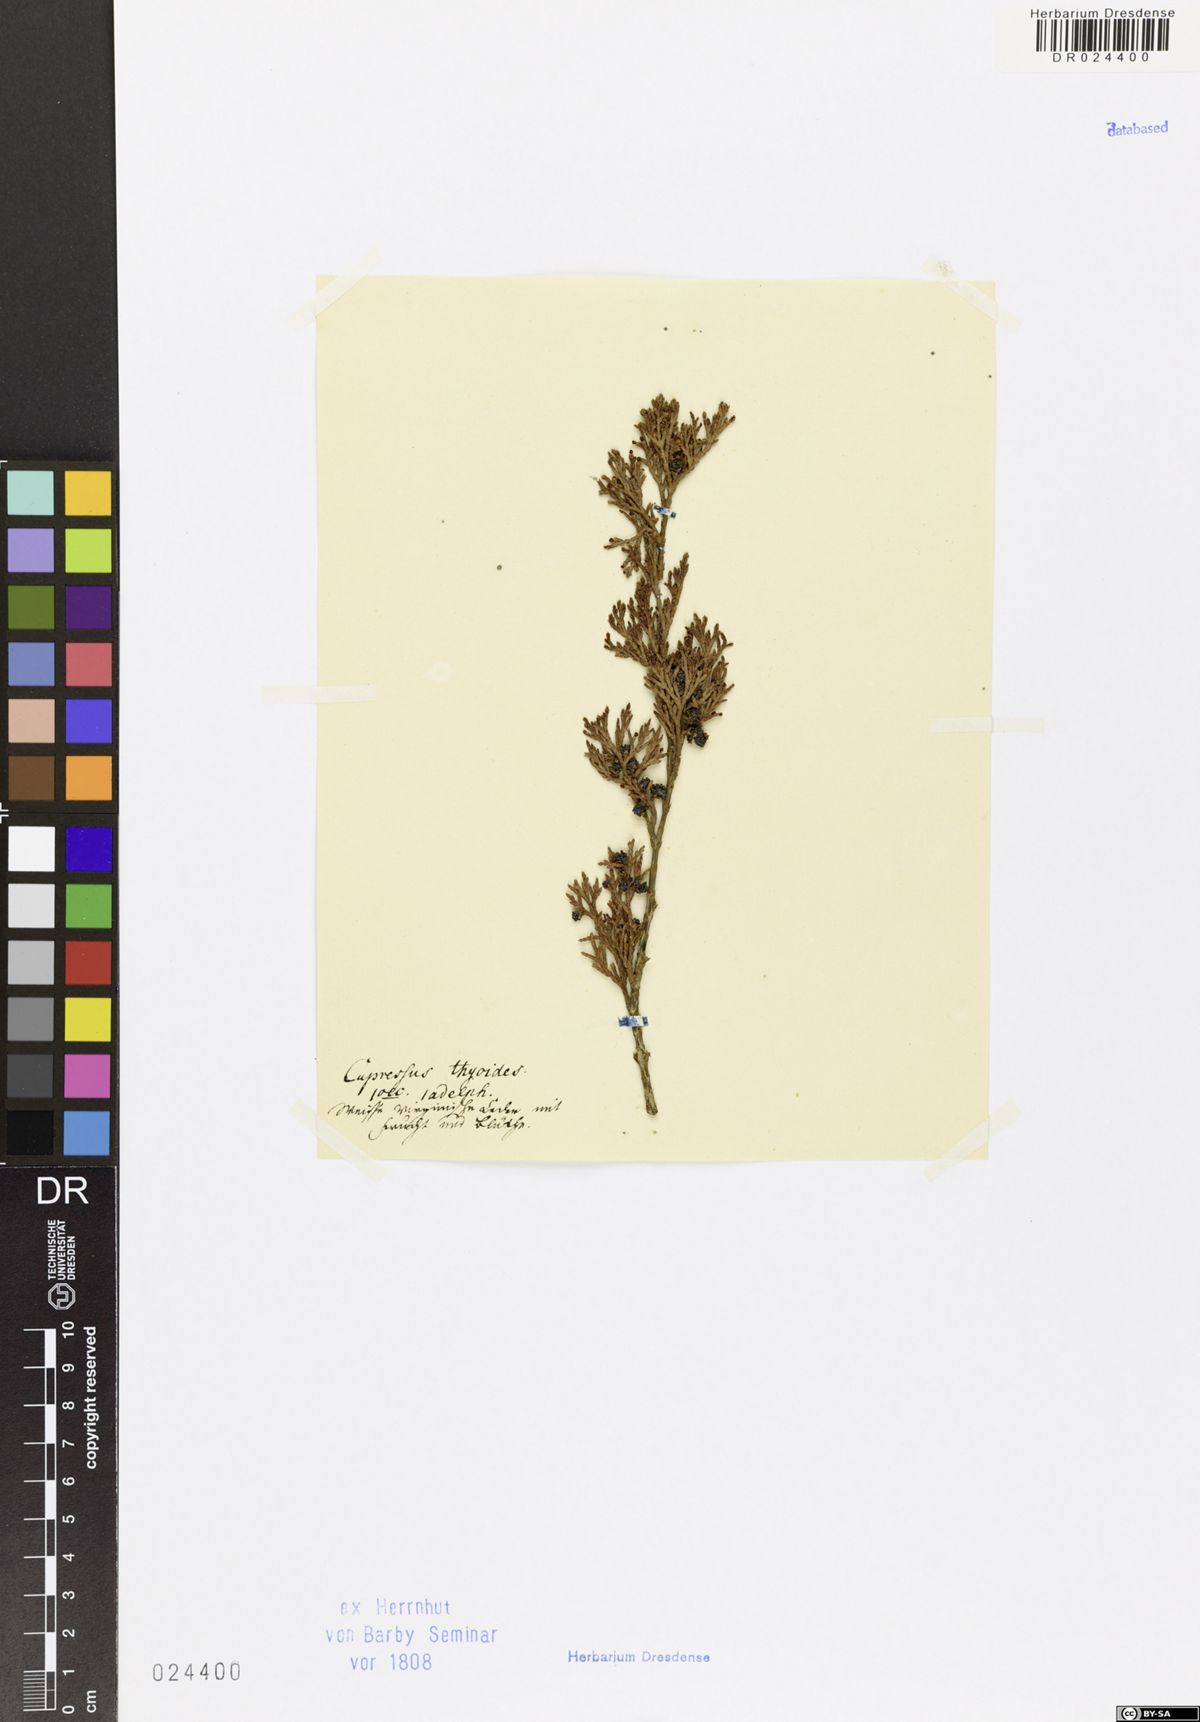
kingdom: Plantae
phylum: Tracheophyta
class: Pinopsida
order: Pinales
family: Cupressaceae
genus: Chamaecyparis
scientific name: Chamaecyparis thyoides
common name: Atlantic white cedar
